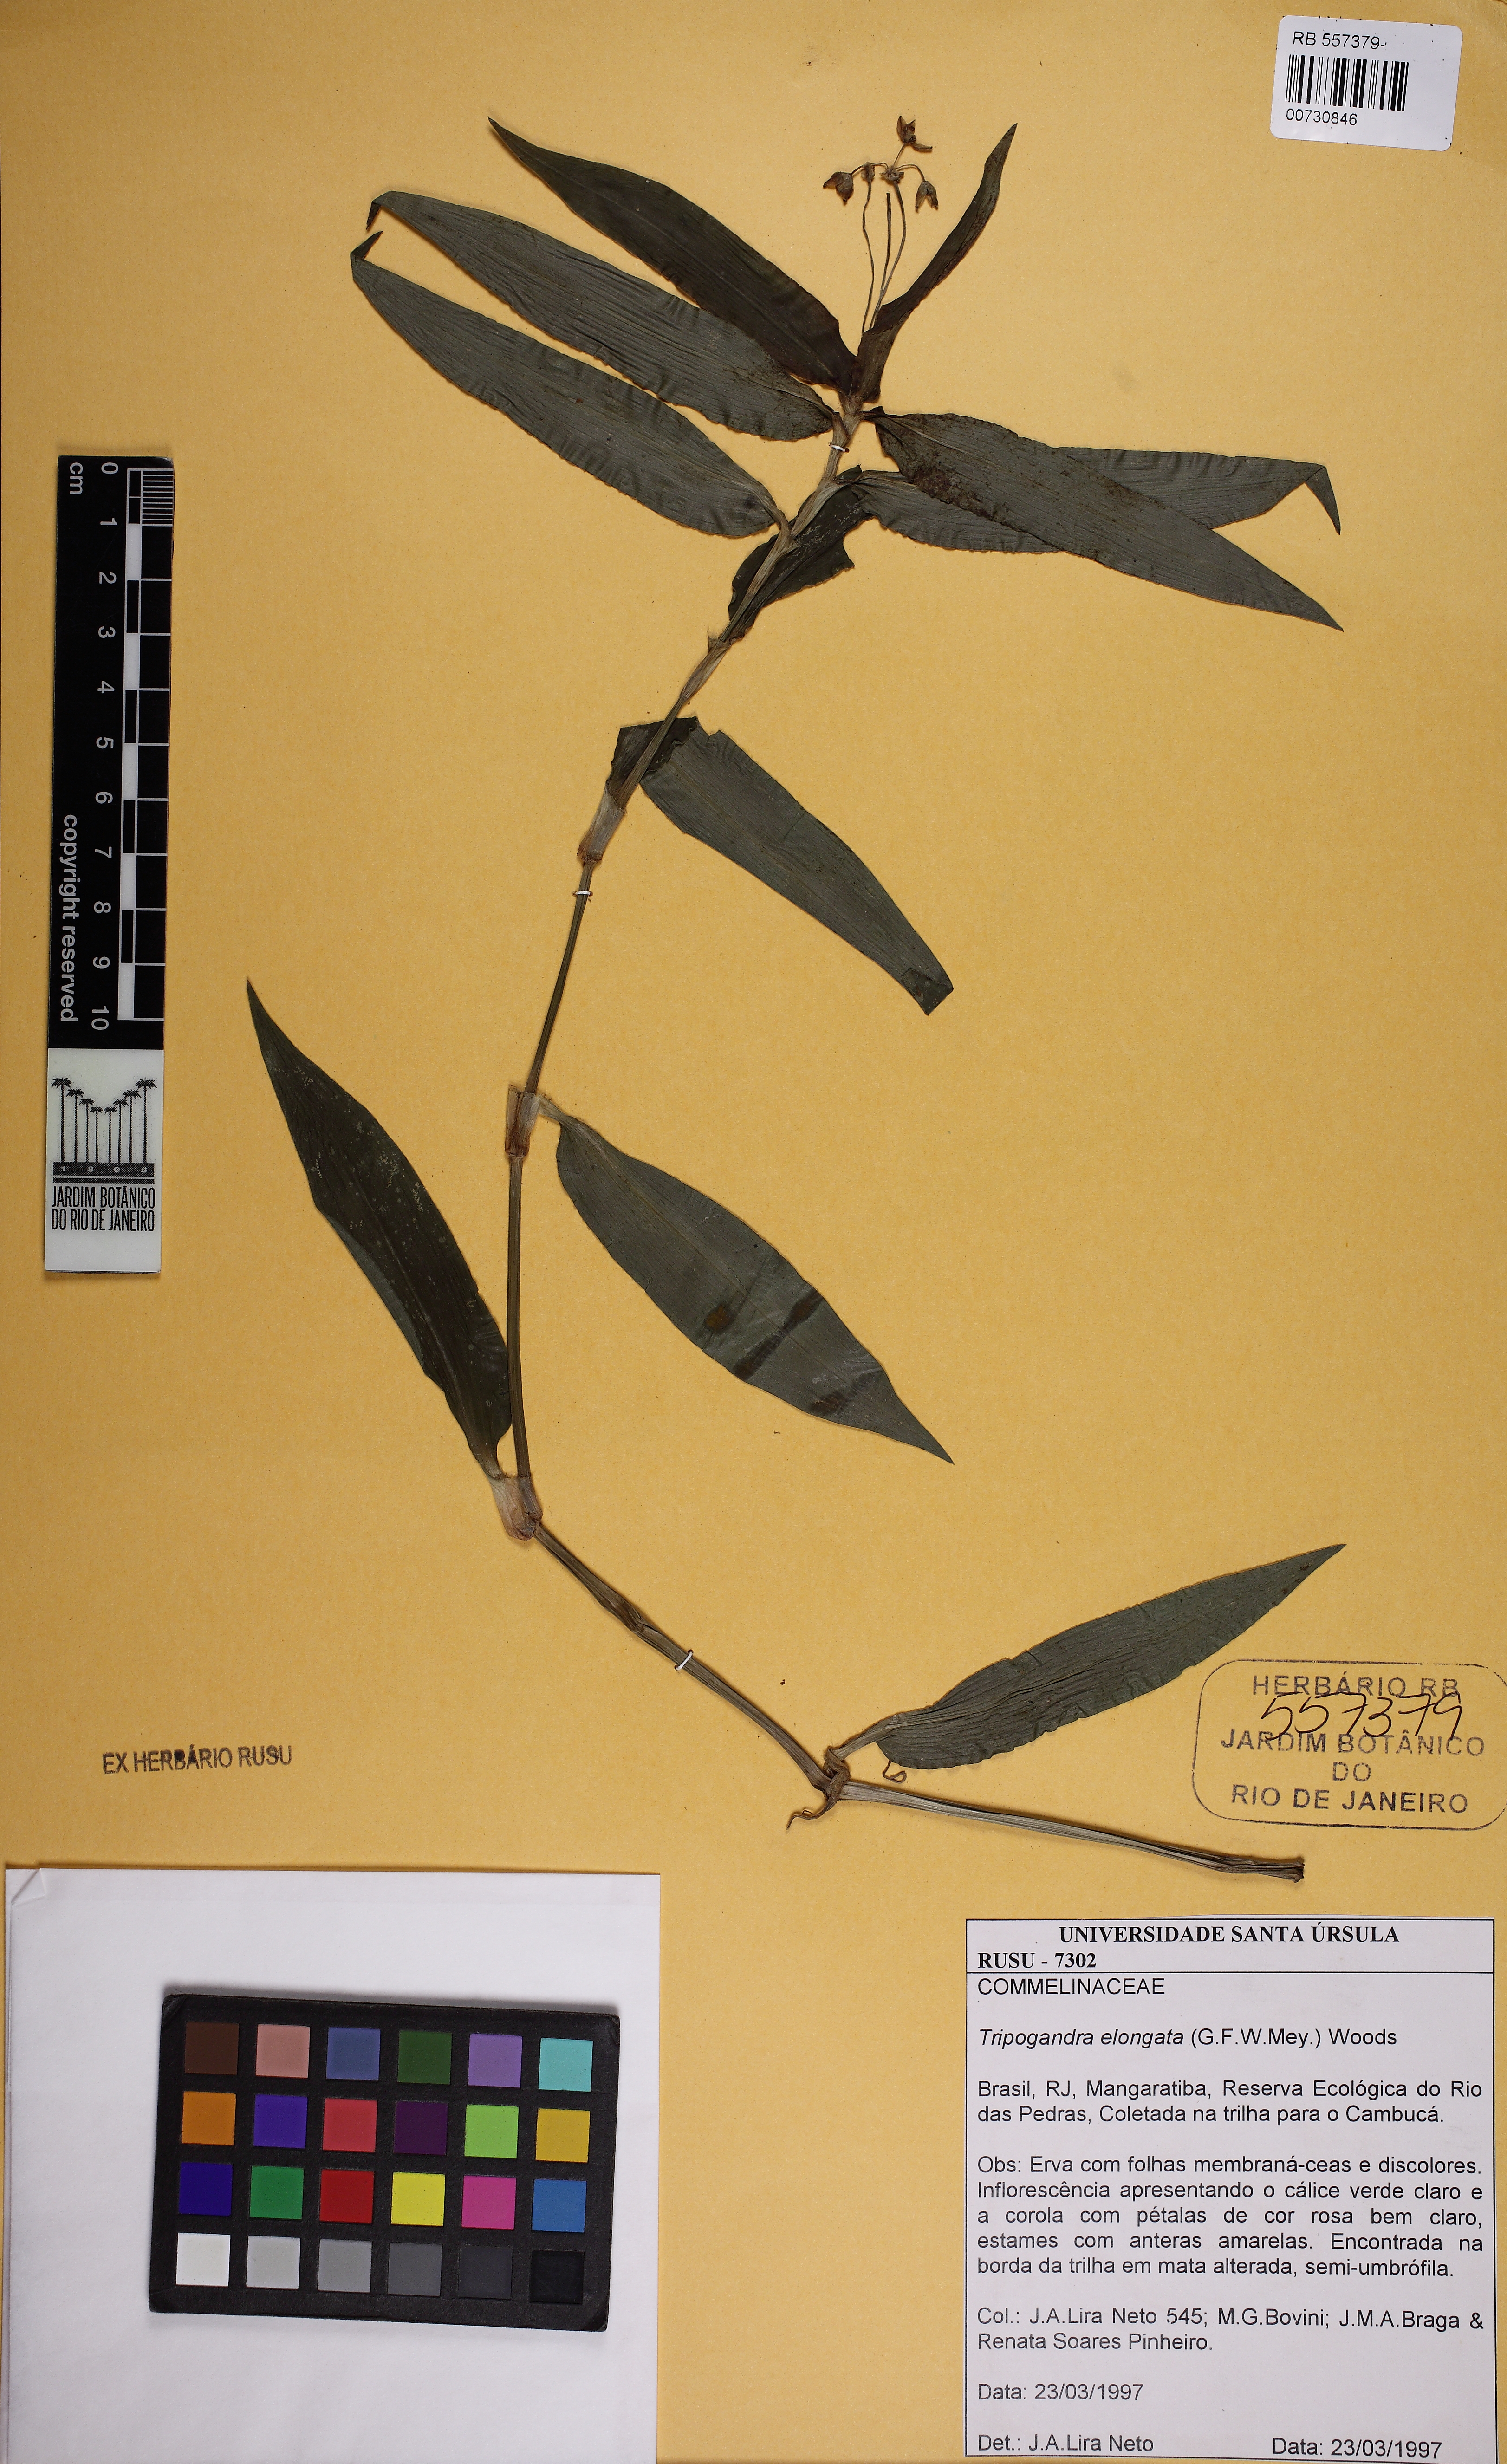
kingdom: Plantae
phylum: Tracheophyta
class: Liliopsida
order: Commelinales
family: Commelinaceae
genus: Callisia
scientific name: Callisia diuretica
